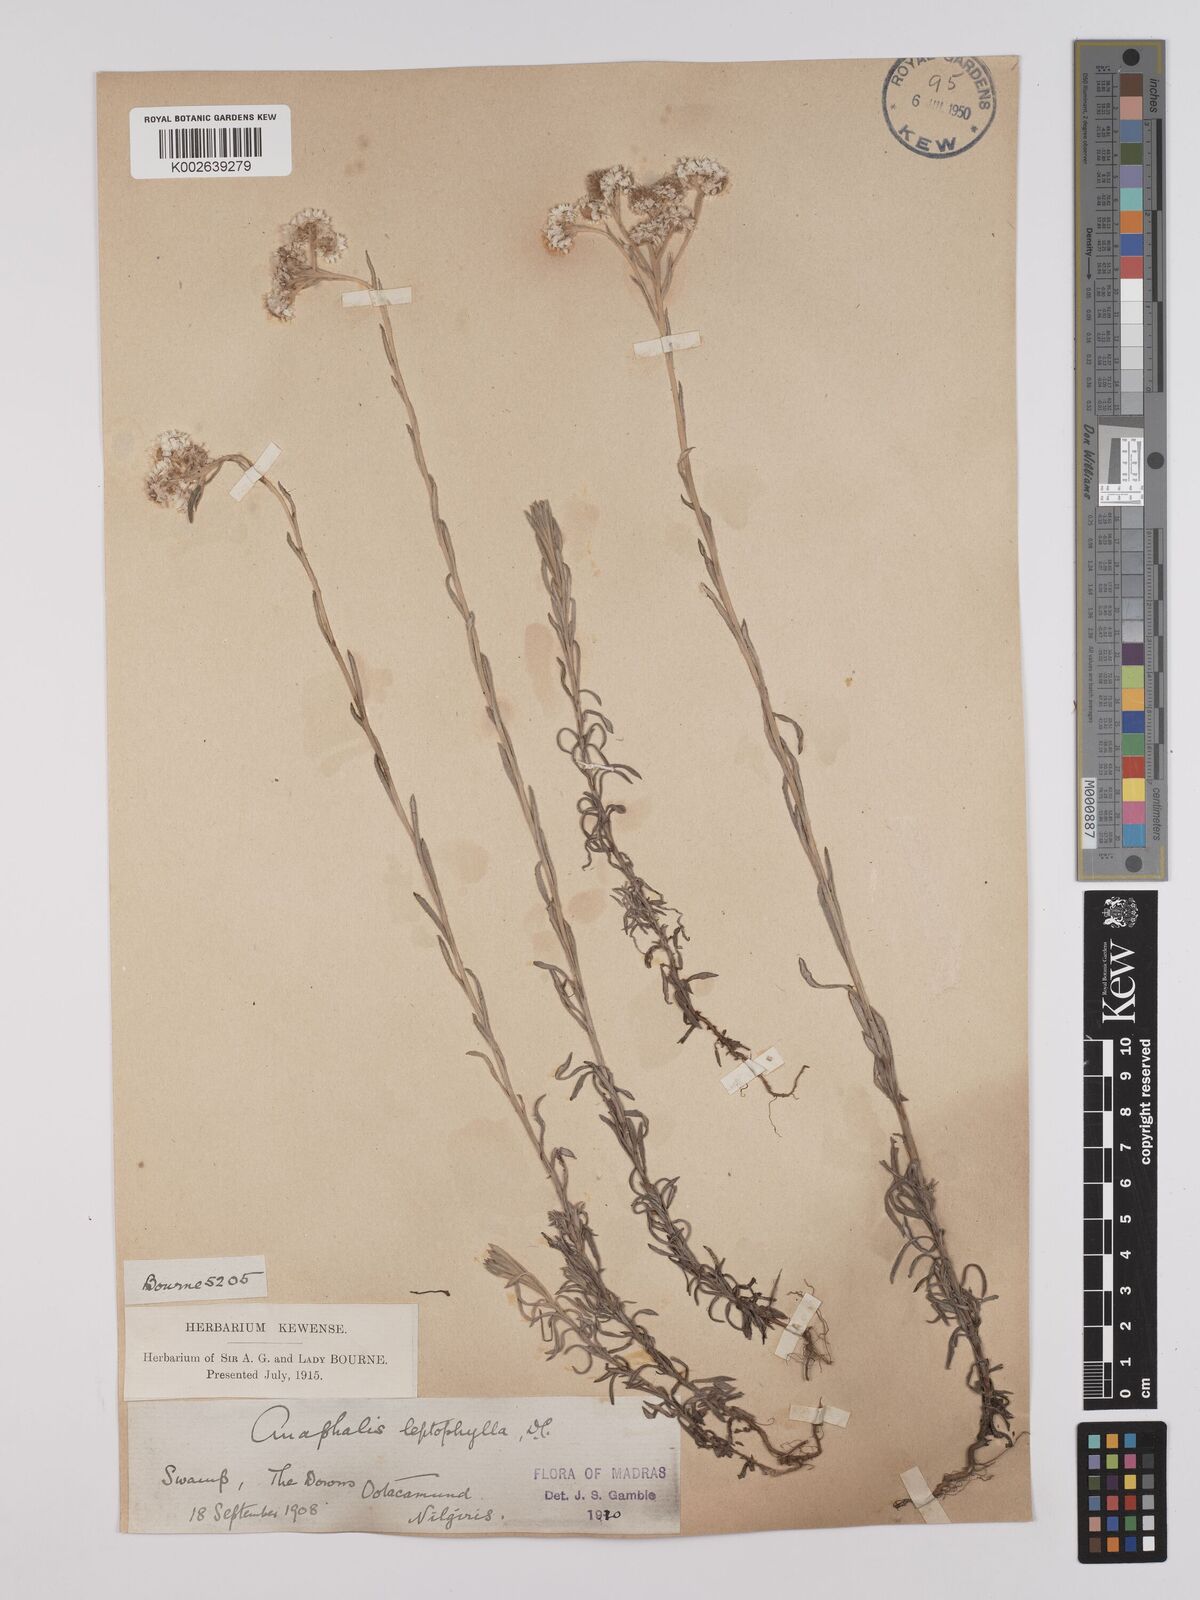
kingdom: Plantae
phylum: Tracheophyta
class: Magnoliopsida
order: Asterales
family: Asteraceae
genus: Anaphalis
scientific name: Anaphalis leptophylla
